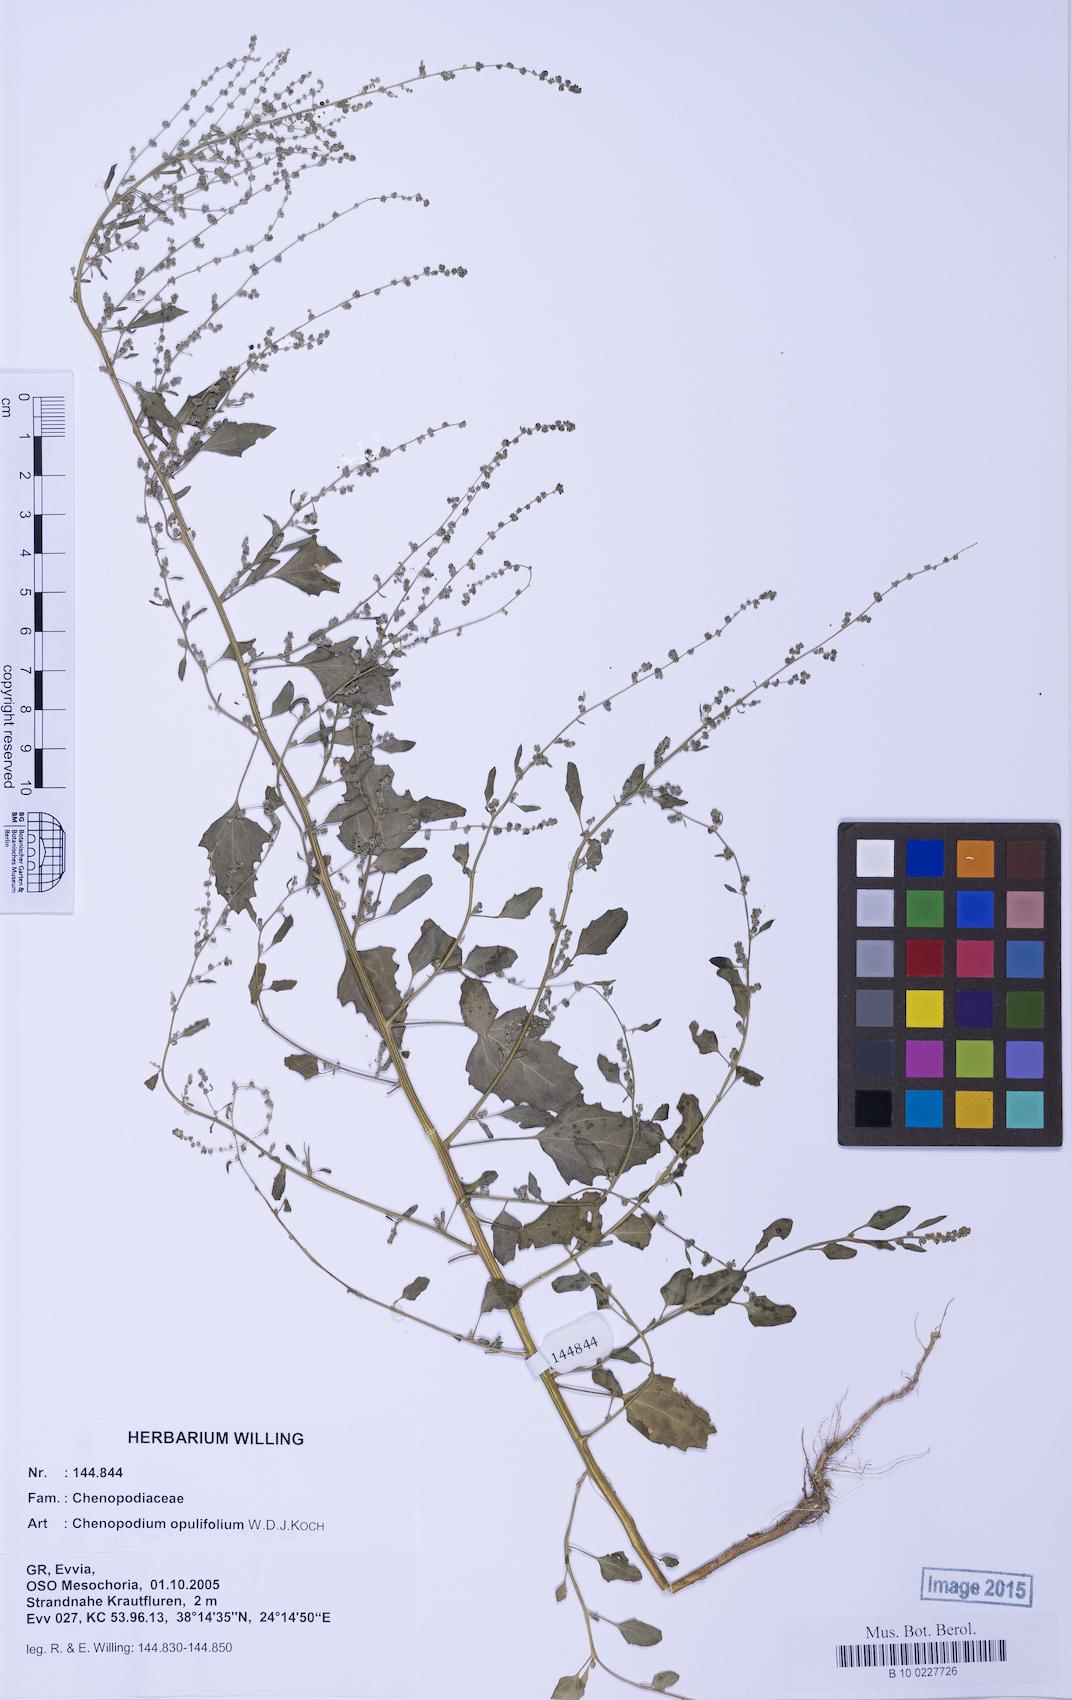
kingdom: Plantae
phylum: Tracheophyta
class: Magnoliopsida
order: Caryophyllales
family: Amaranthaceae
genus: Chenopodium
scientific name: Chenopodium album
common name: Fat-hen
